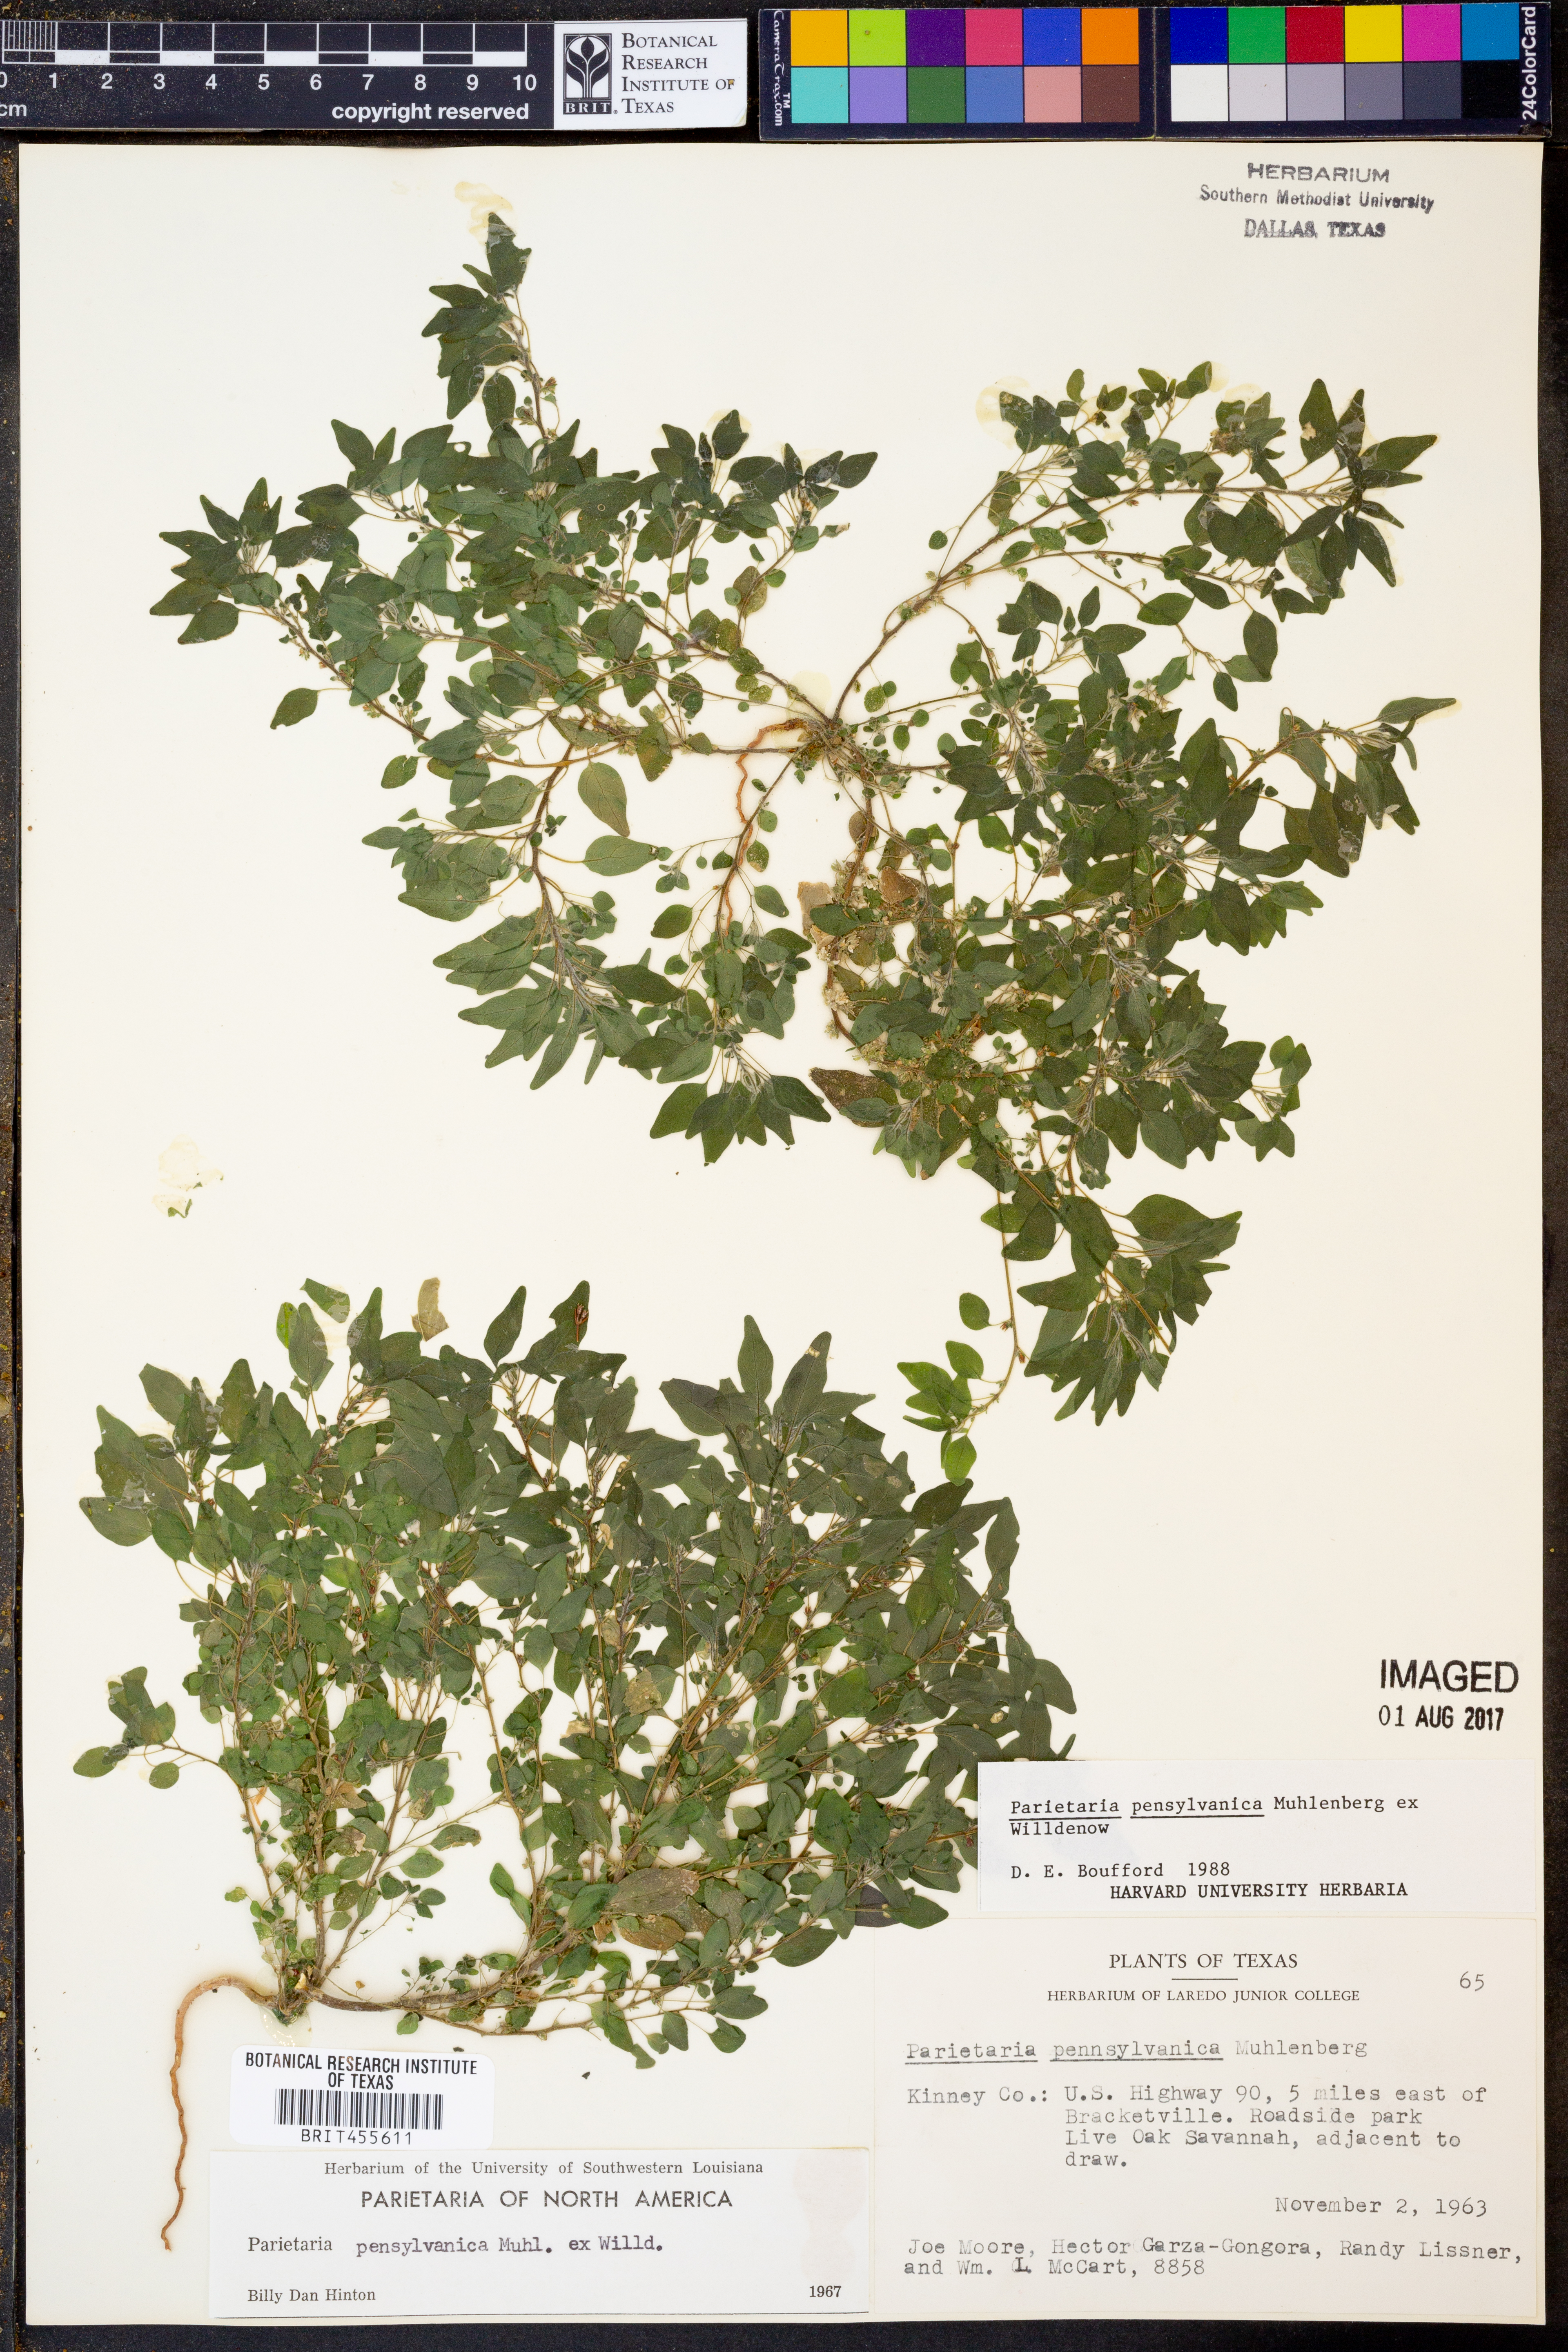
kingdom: Plantae
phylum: Tracheophyta
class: Magnoliopsida
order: Rosales
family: Urticaceae
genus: Parietaria
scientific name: Parietaria pensylvanica
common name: Pennsylvania pellitory
